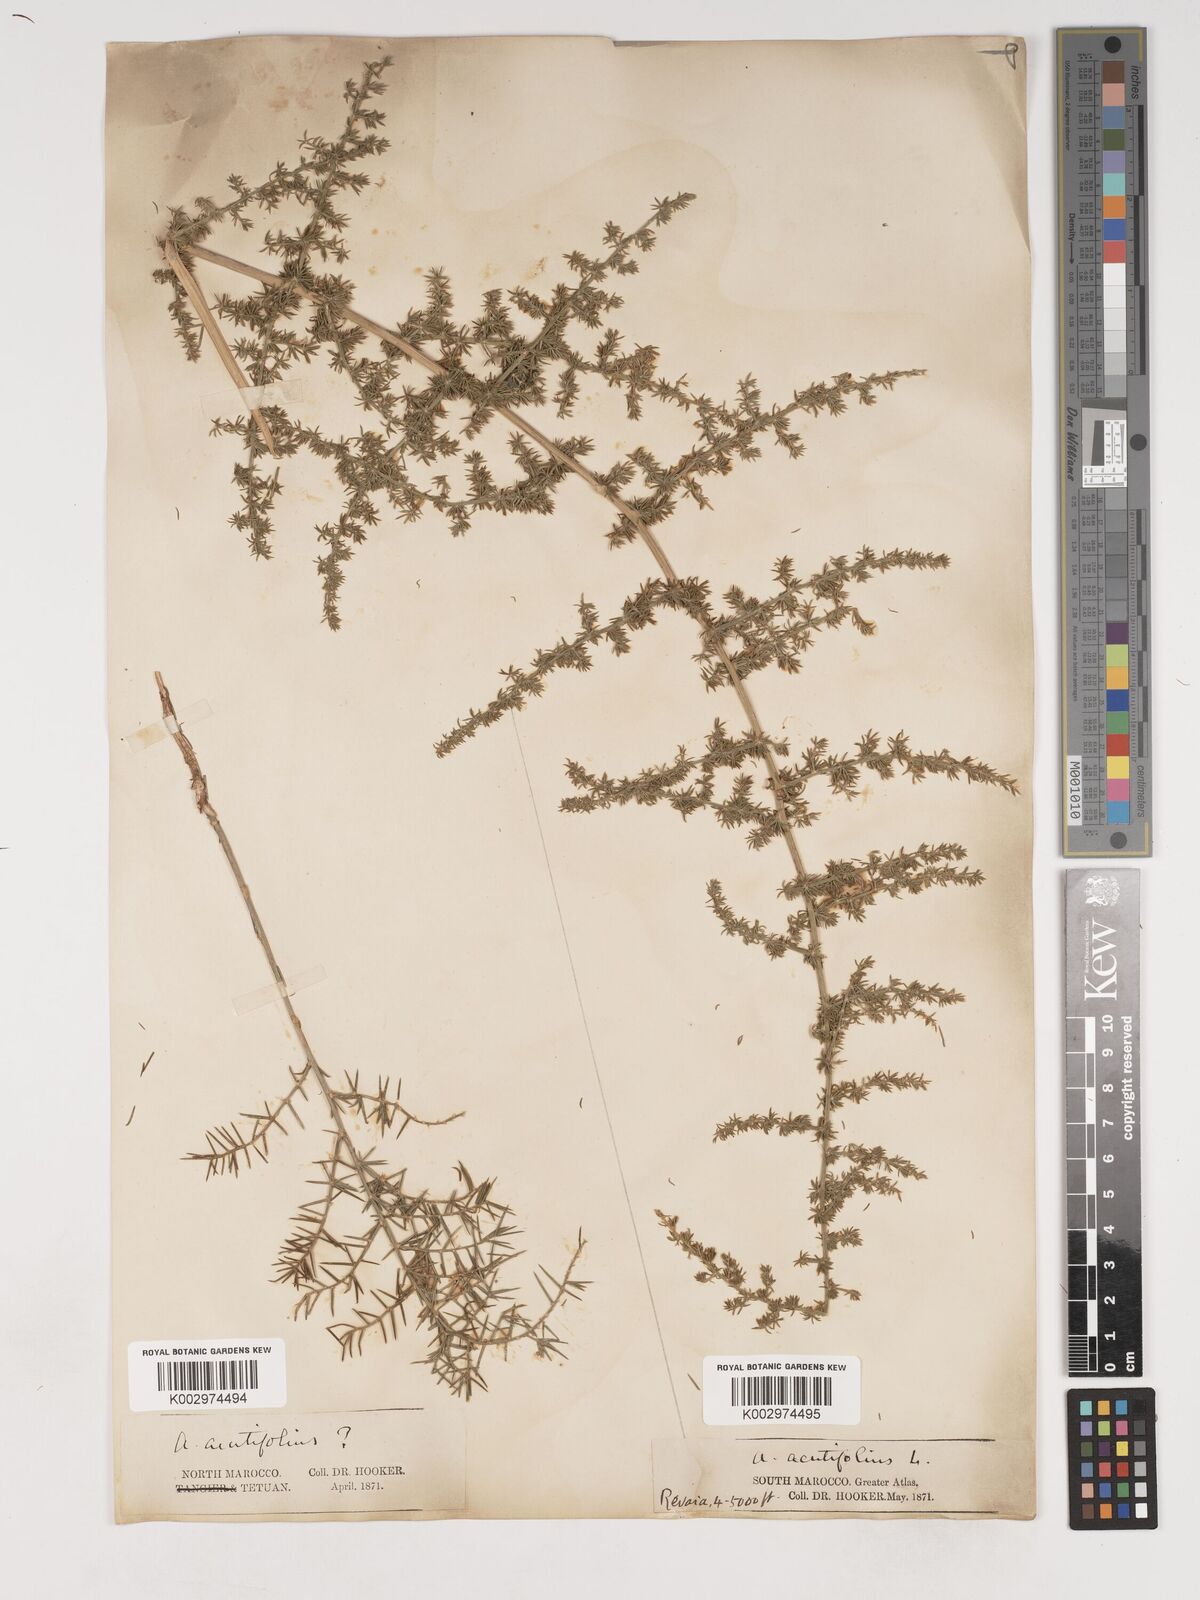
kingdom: Plantae
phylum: Tracheophyta
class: Liliopsida
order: Asparagales
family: Asparagaceae
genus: Asparagus
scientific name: Asparagus acutifolius
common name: Wild asparagus
